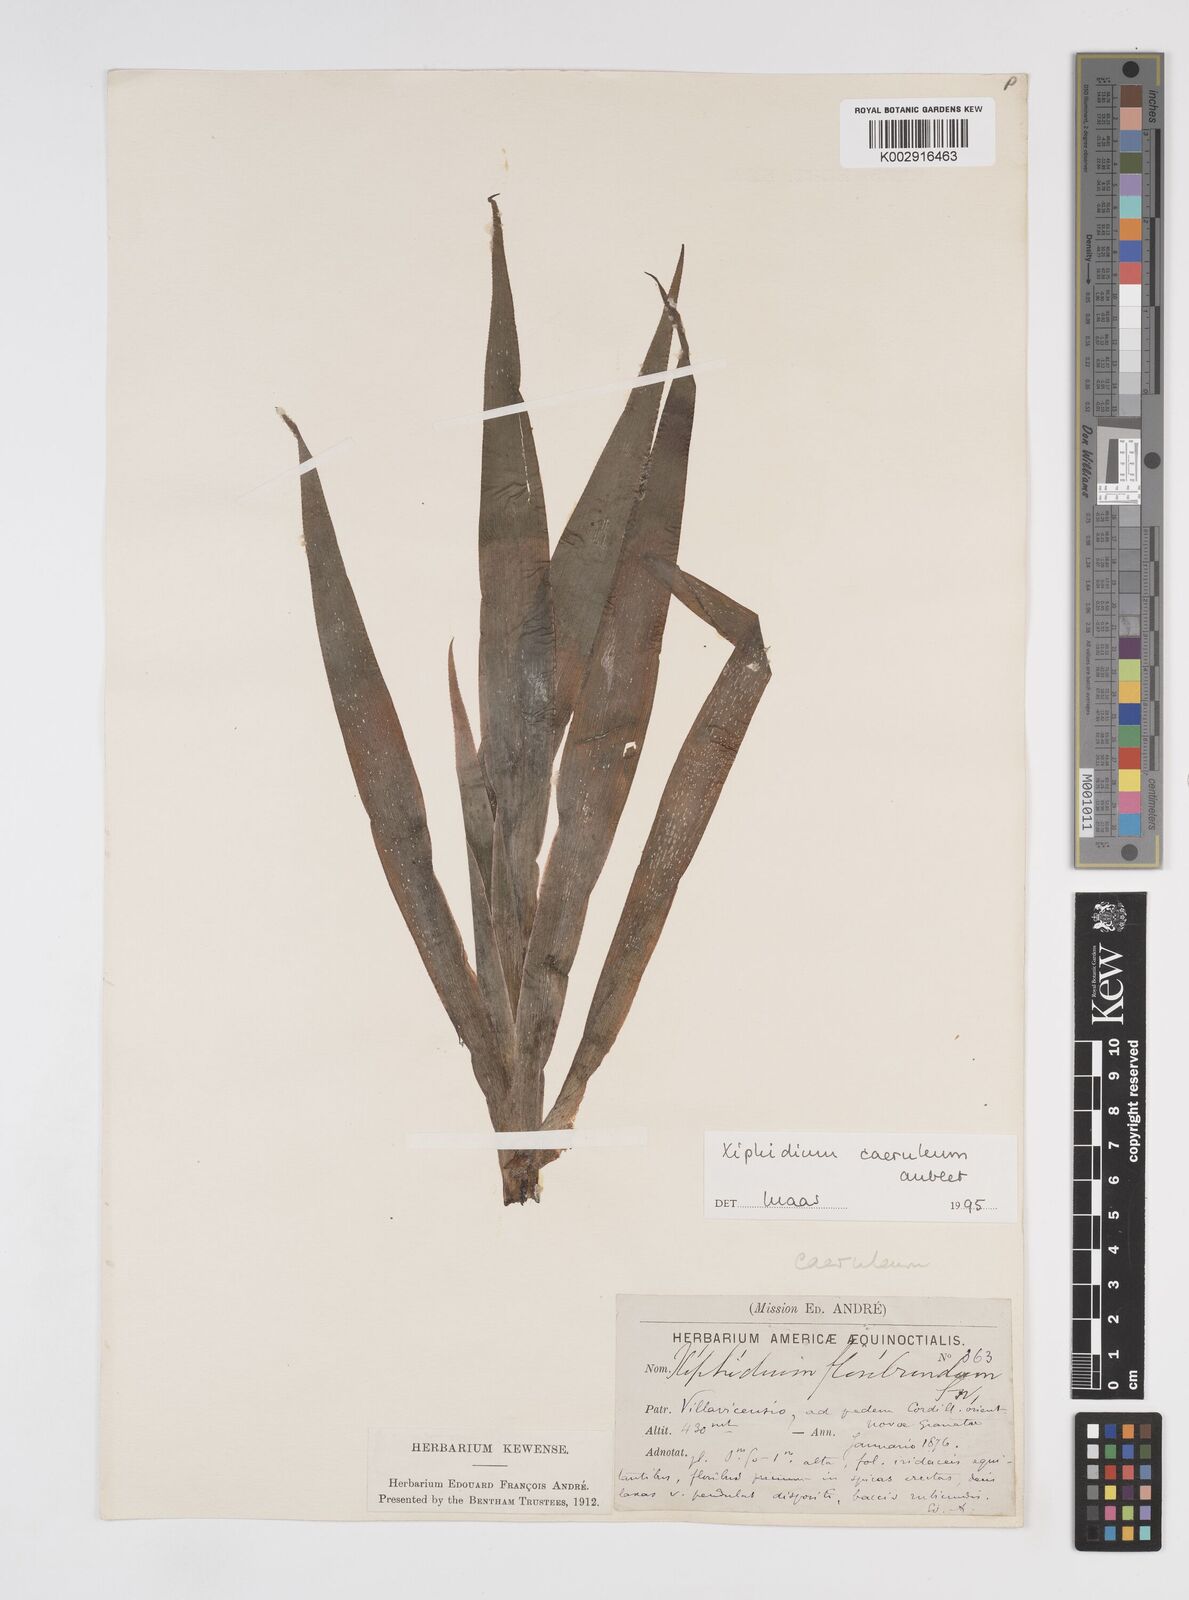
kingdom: Plantae
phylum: Tracheophyta
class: Liliopsida
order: Commelinales
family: Haemodoraceae
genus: Xiphidium
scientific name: Xiphidium caeruleum
